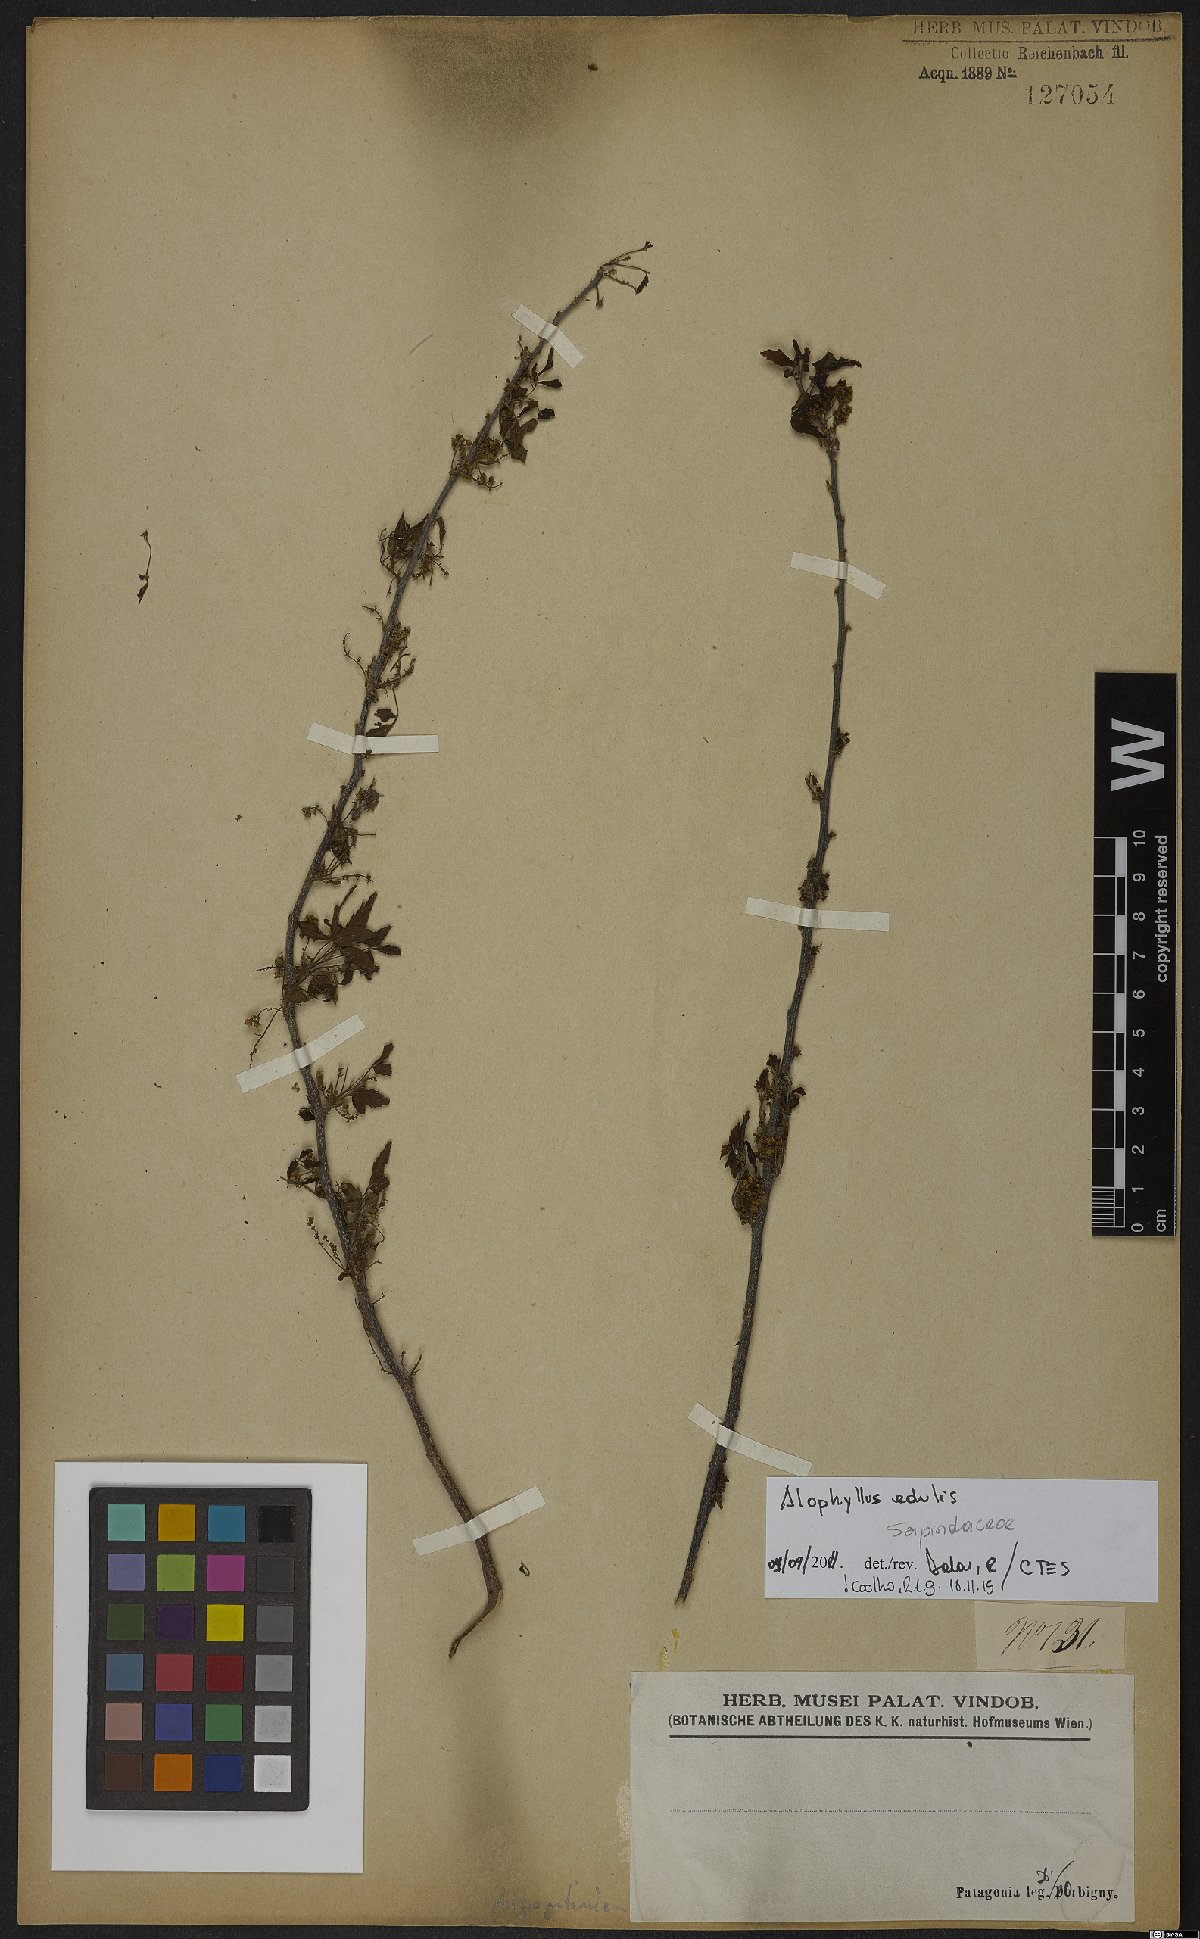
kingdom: Plantae
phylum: Tracheophyta
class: Magnoliopsida
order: Sapindales
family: Sapindaceae
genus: Allophylus
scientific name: Allophylus edulis
